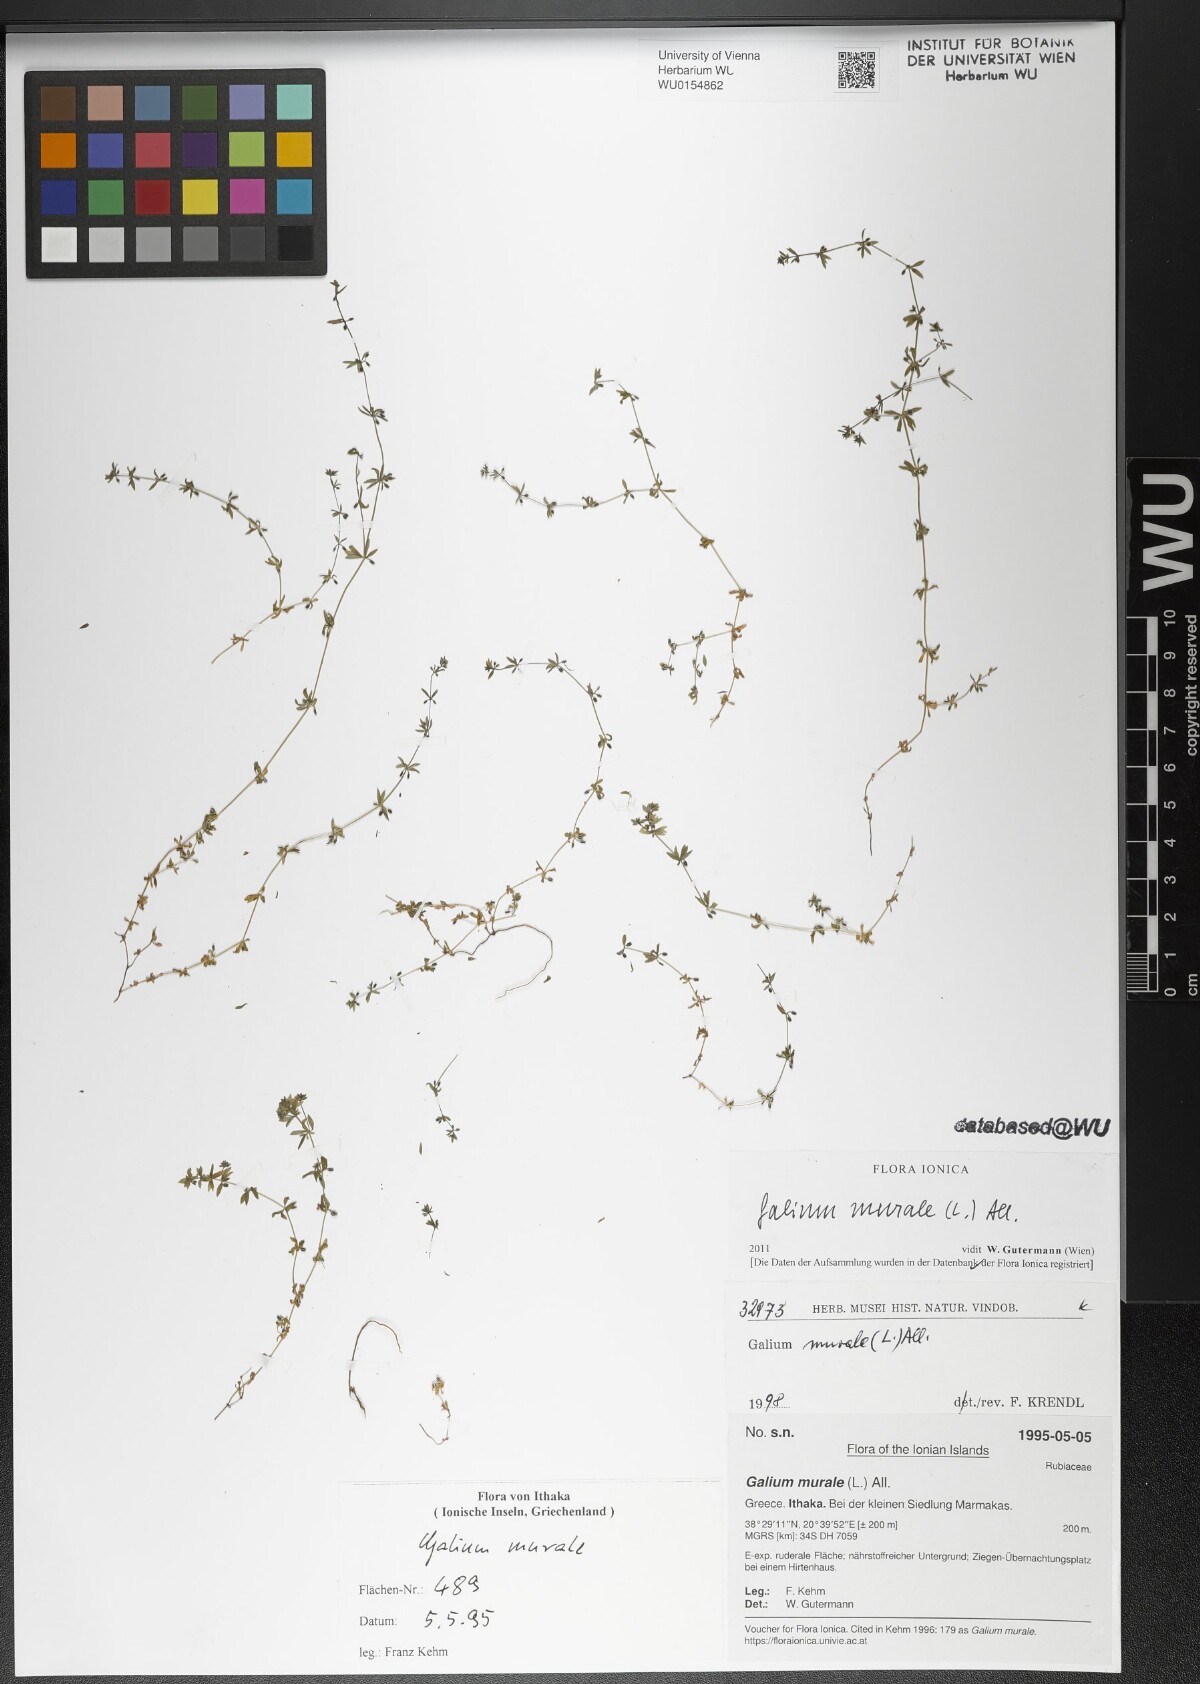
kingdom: Plantae
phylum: Tracheophyta
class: Magnoliopsida
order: Gentianales
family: Rubiaceae
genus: Galium
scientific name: Galium murale
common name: Yellow wall bedstraw
